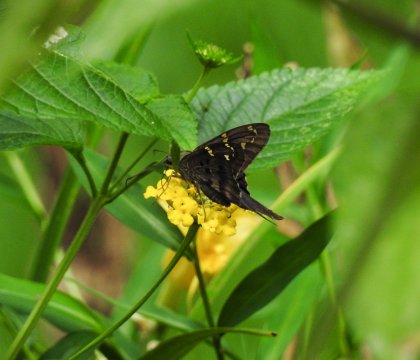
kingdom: Animalia
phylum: Arthropoda
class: Insecta
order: Lepidoptera
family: Hesperiidae
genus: Urbanus
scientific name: Urbanus proteus
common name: Long-tailed Skipper
